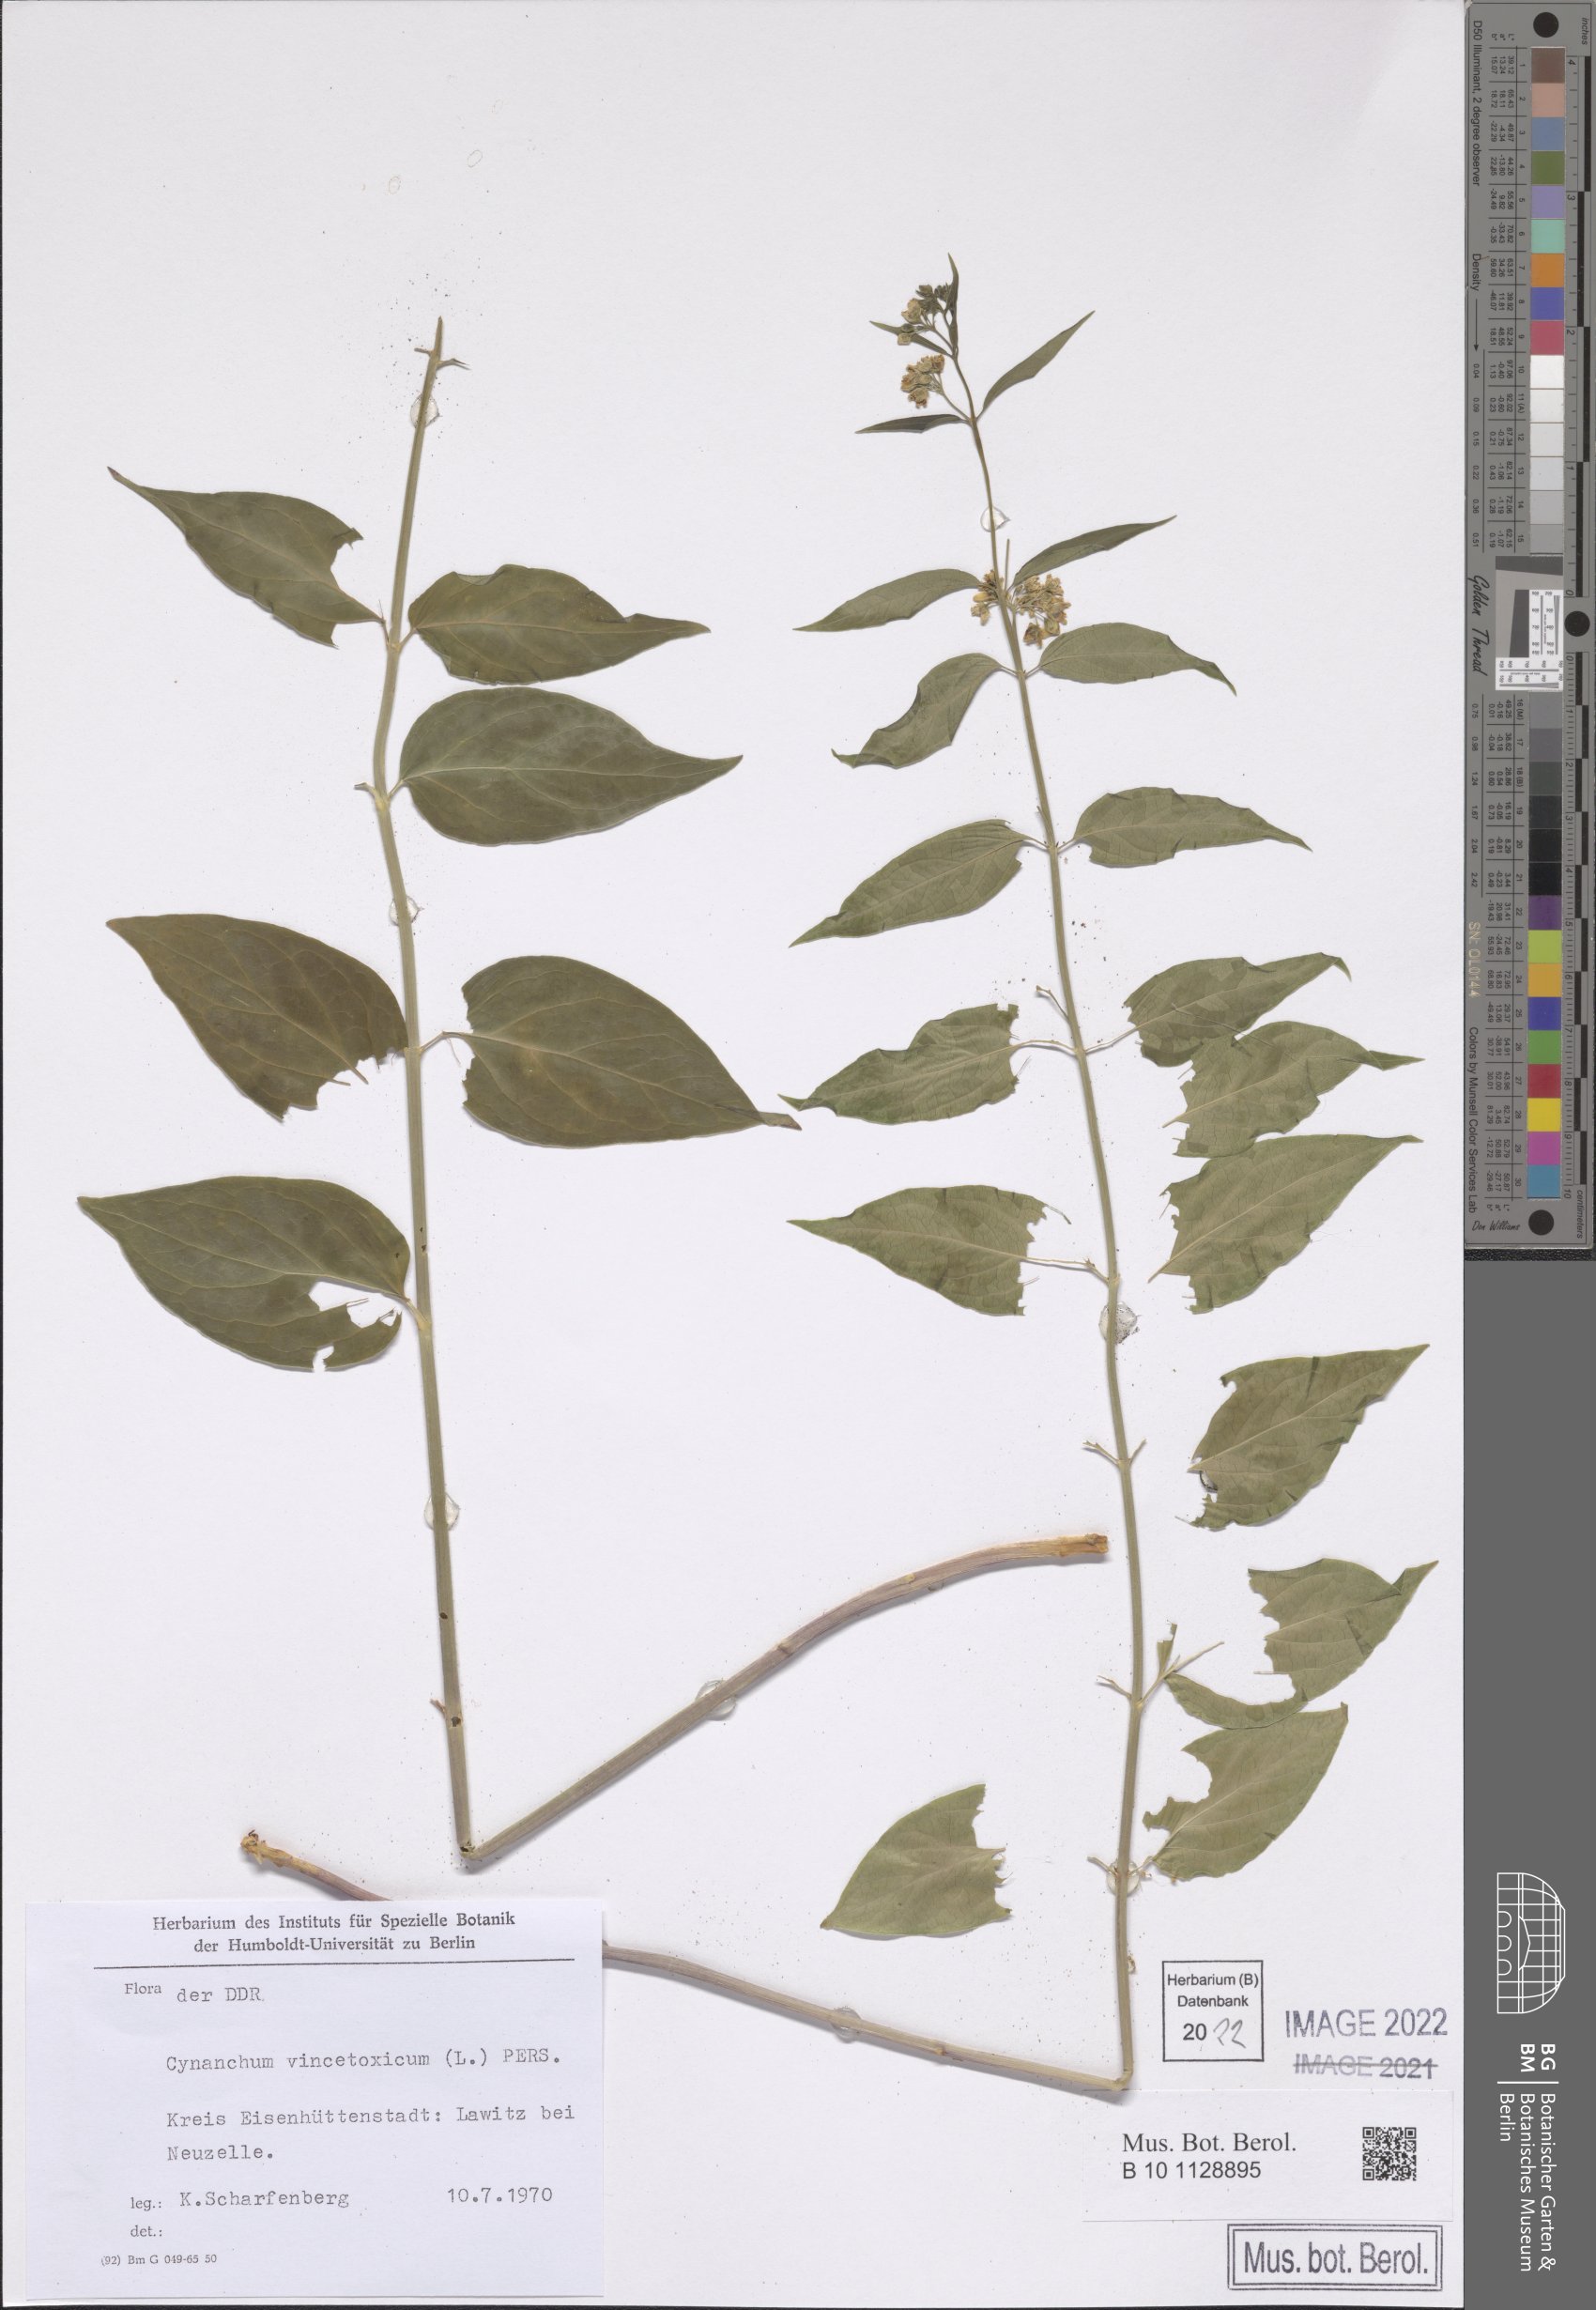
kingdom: Plantae
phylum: Tracheophyta
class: Magnoliopsida
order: Gentianales
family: Apocynaceae
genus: Vincetoxicum
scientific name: Vincetoxicum hirundinaria
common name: White swallowwort
